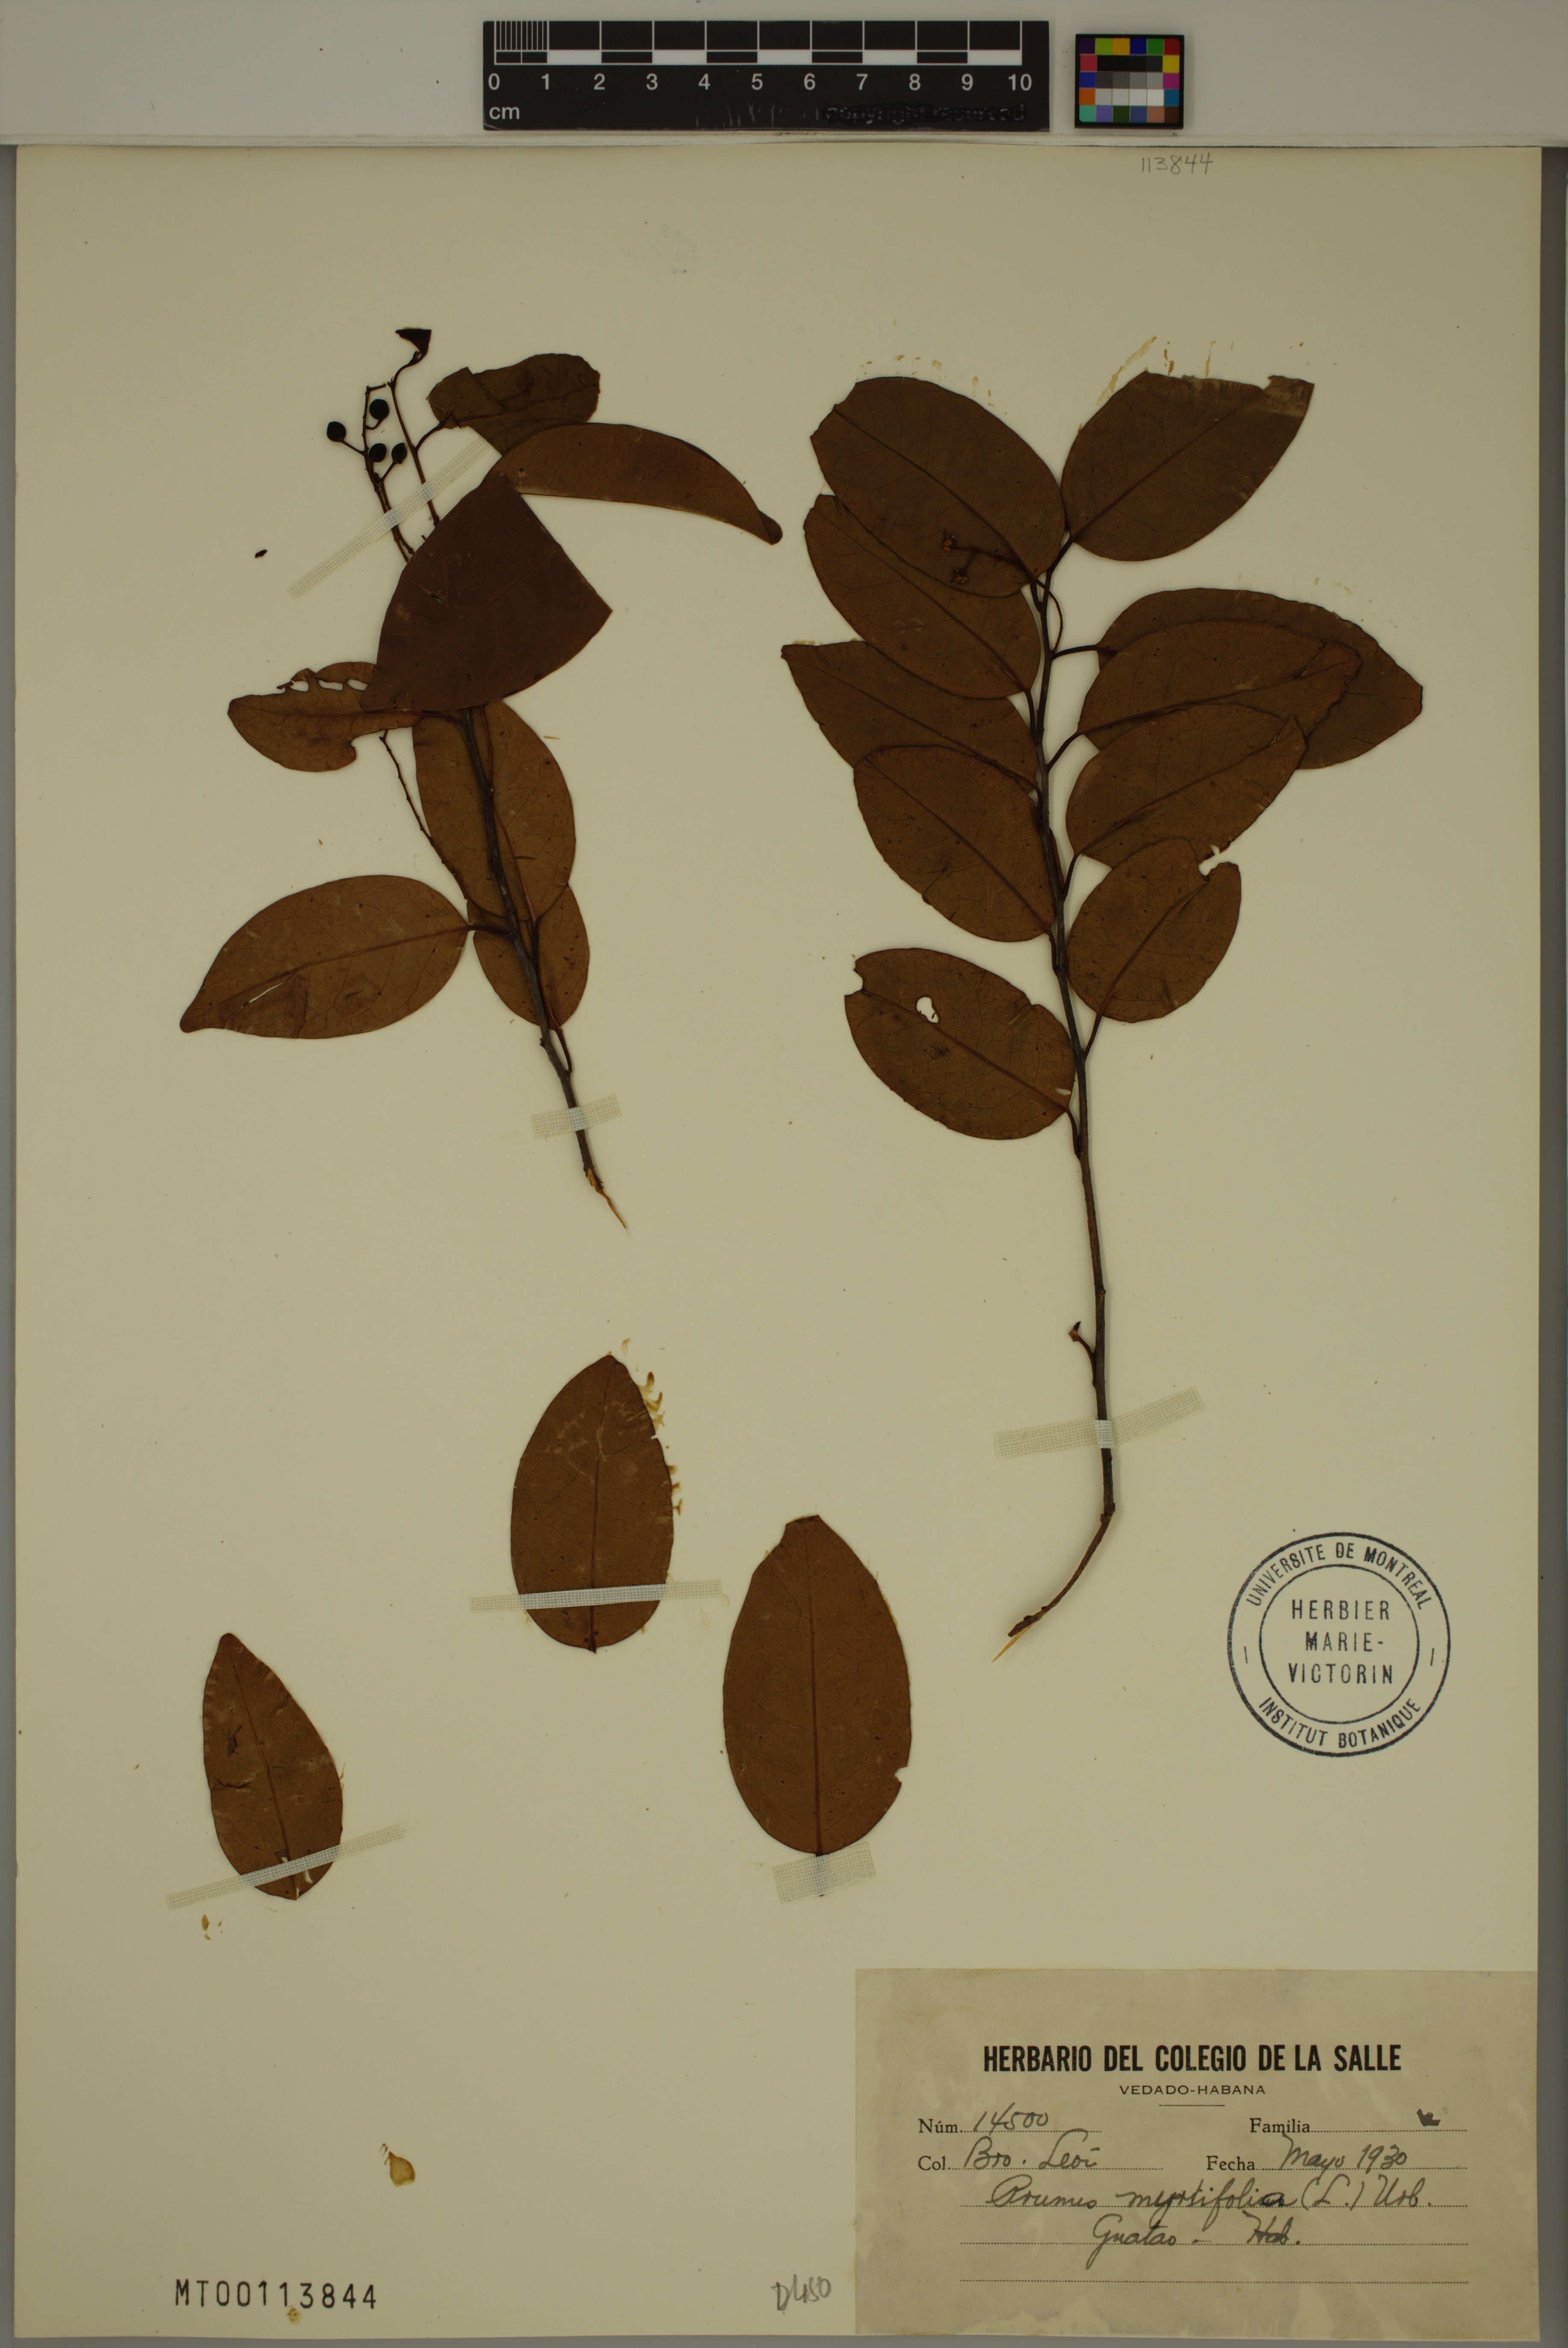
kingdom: Plantae
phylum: Tracheophyta
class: Magnoliopsida
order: Rosales
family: Rosaceae
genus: Prunus
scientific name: Prunus myrtifolia
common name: West indies cherry
